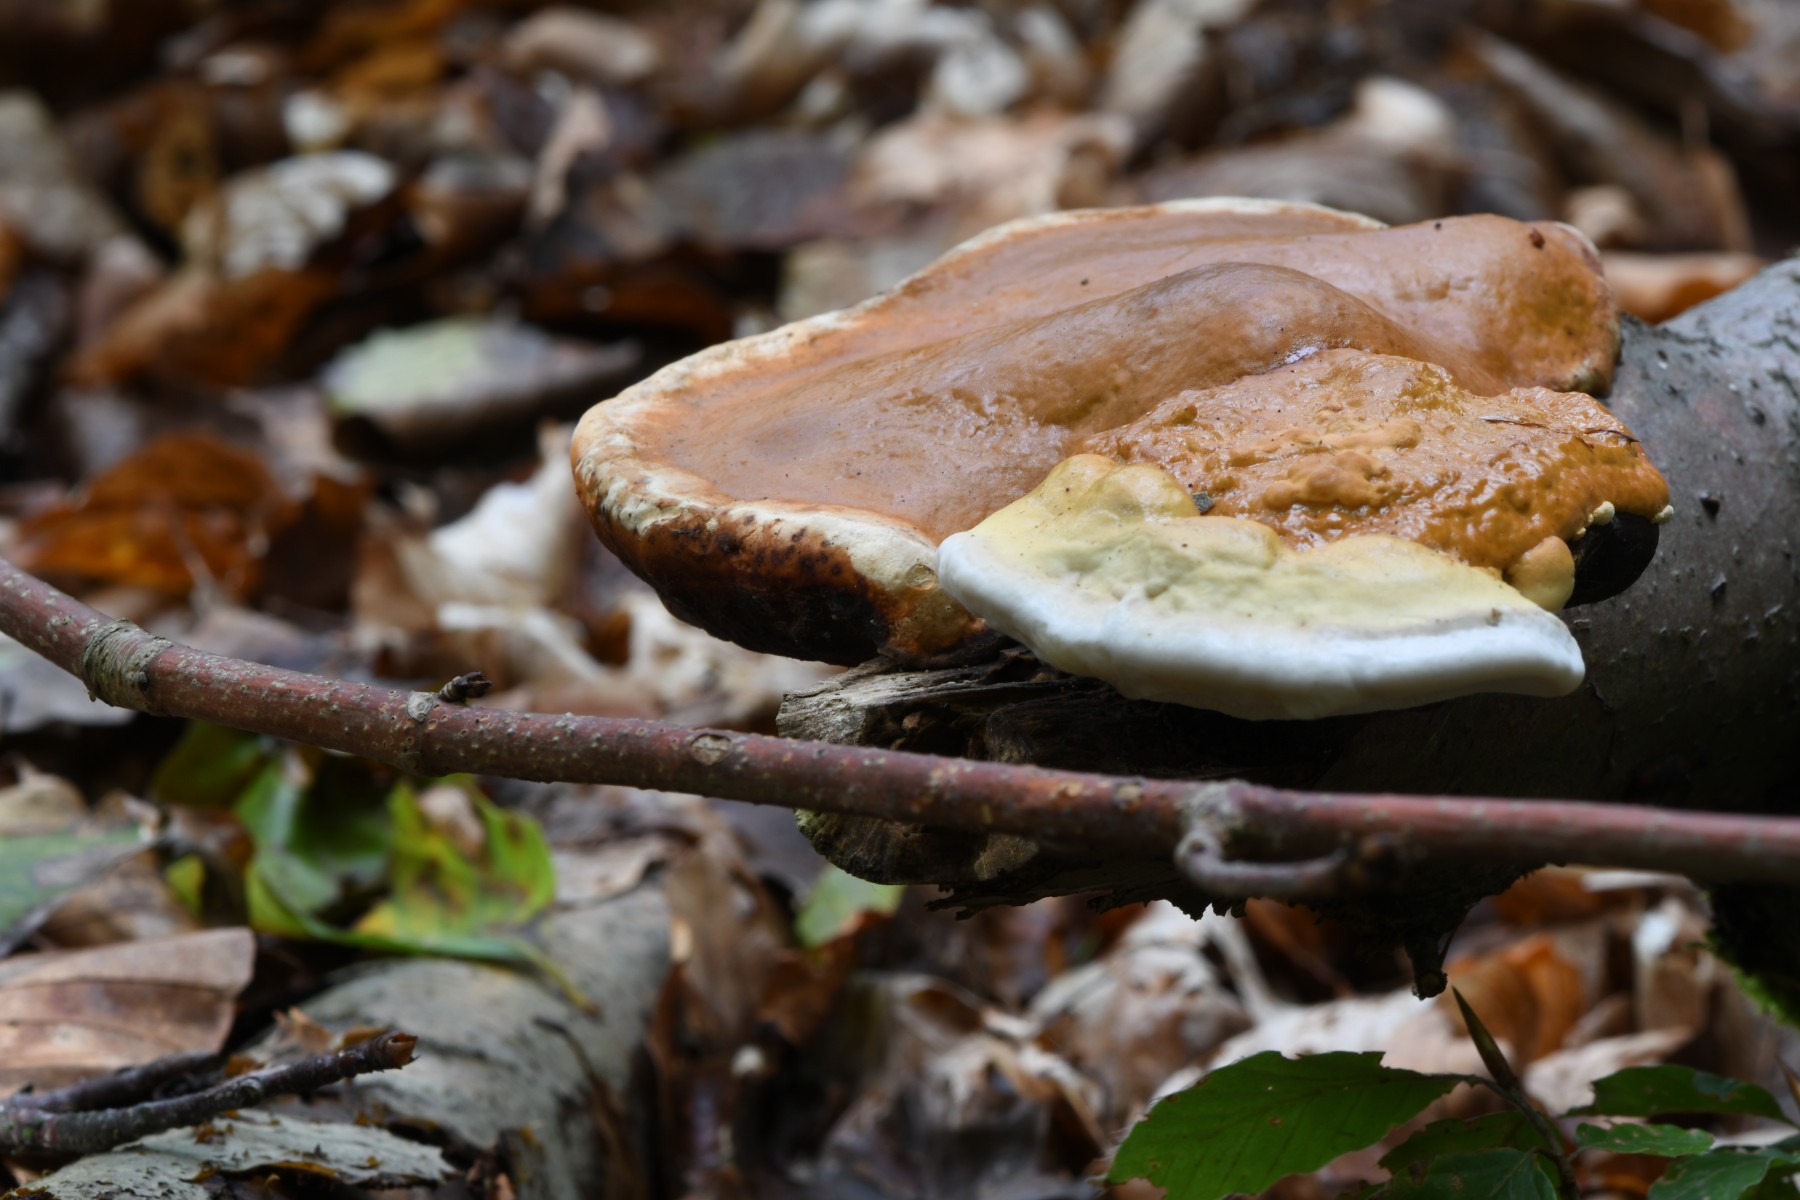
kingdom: Fungi
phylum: Basidiomycota
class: Agaricomycetes
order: Polyporales
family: Fomitopsidaceae
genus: Fomitopsis
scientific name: Fomitopsis pinicola
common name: randbæltet hovporesvamp
